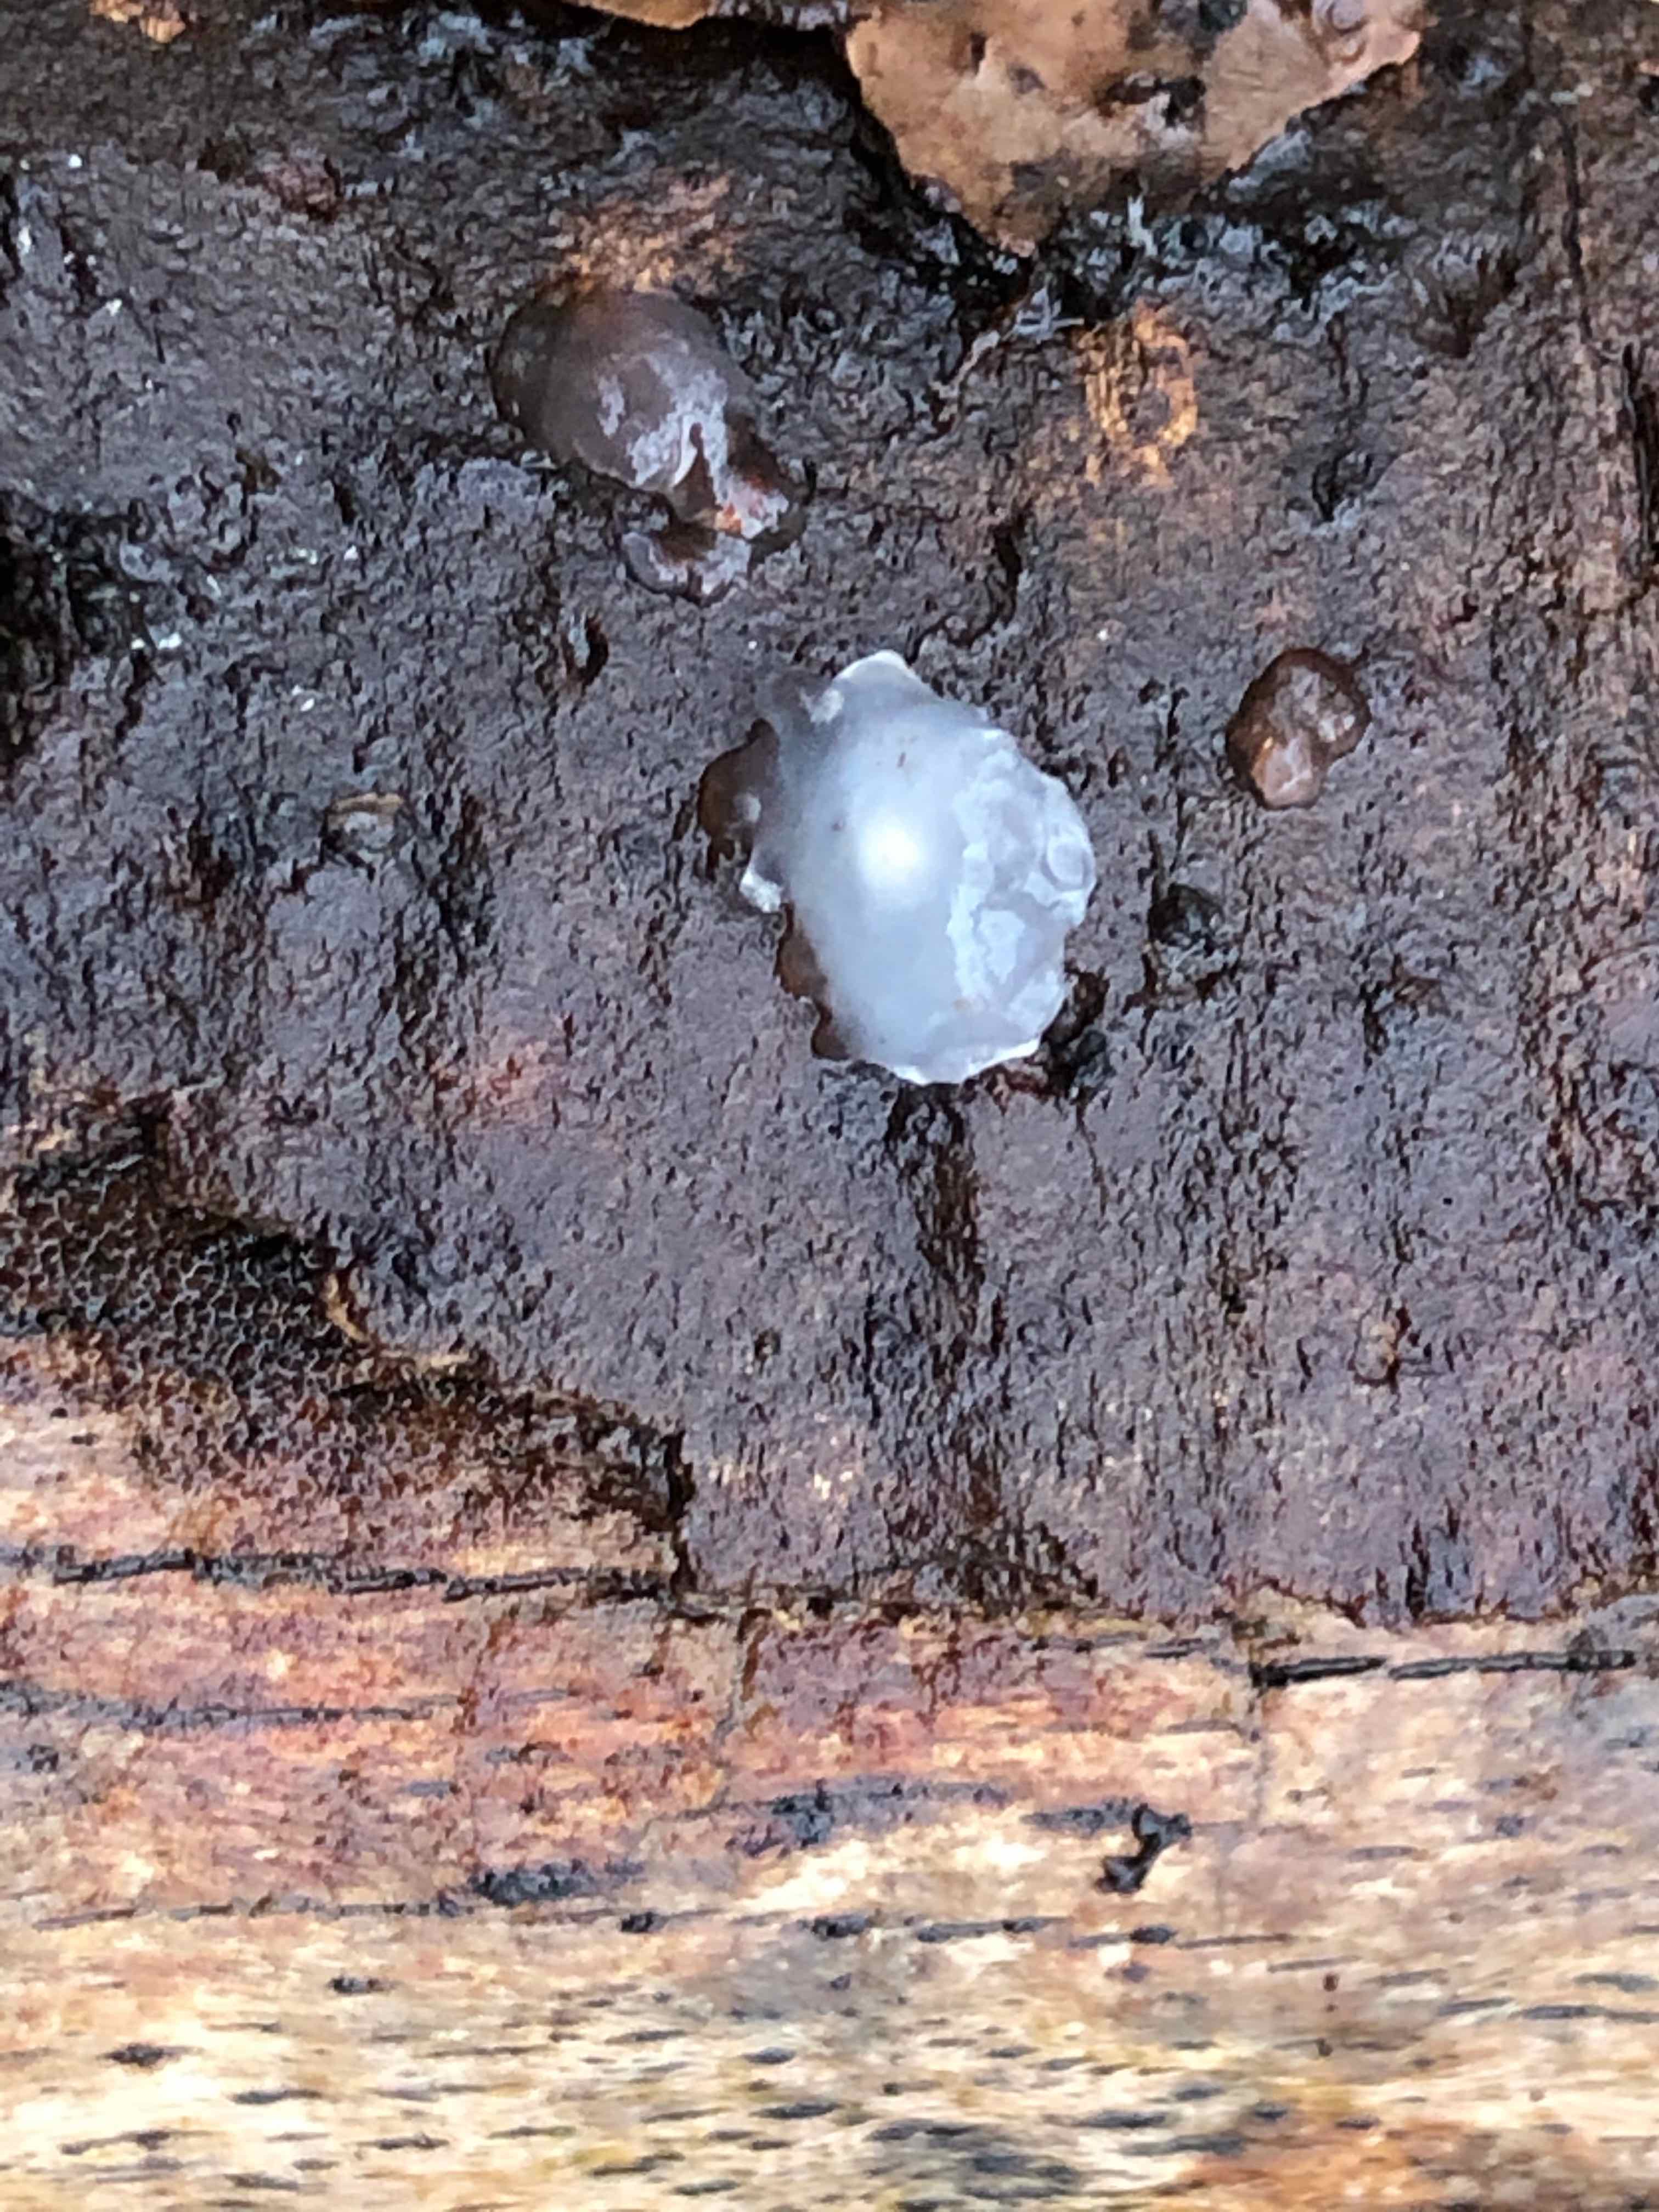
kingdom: Fungi
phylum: Basidiomycota
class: Agaricomycetes
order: Auriculariales
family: Hyaloriaceae
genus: Myxarium
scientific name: Myxarium nucleatum
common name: klar bævretop
